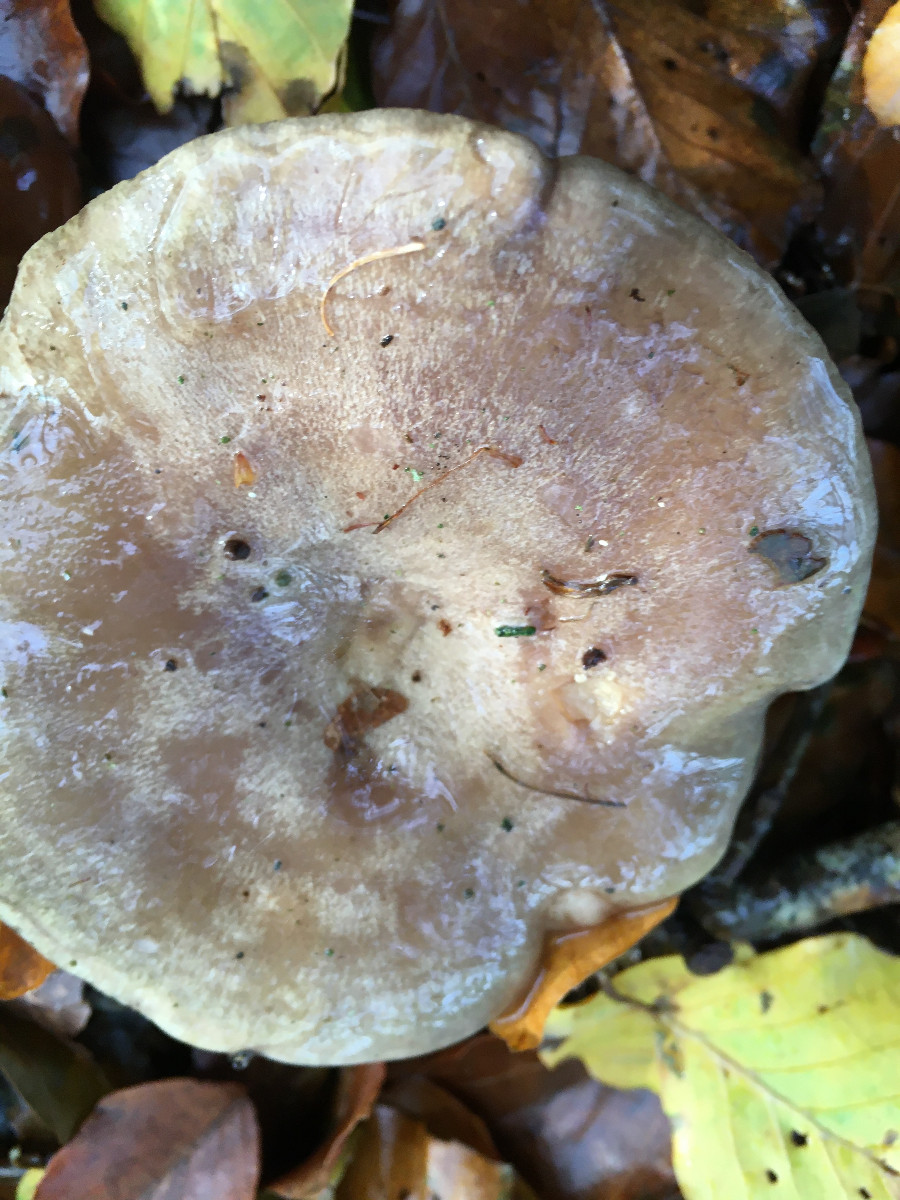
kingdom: Fungi
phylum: Basidiomycota
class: Agaricomycetes
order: Russulales
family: Russulaceae
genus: Lactarius
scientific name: Lactarius blennius
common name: dråbeplettet mælkehat
